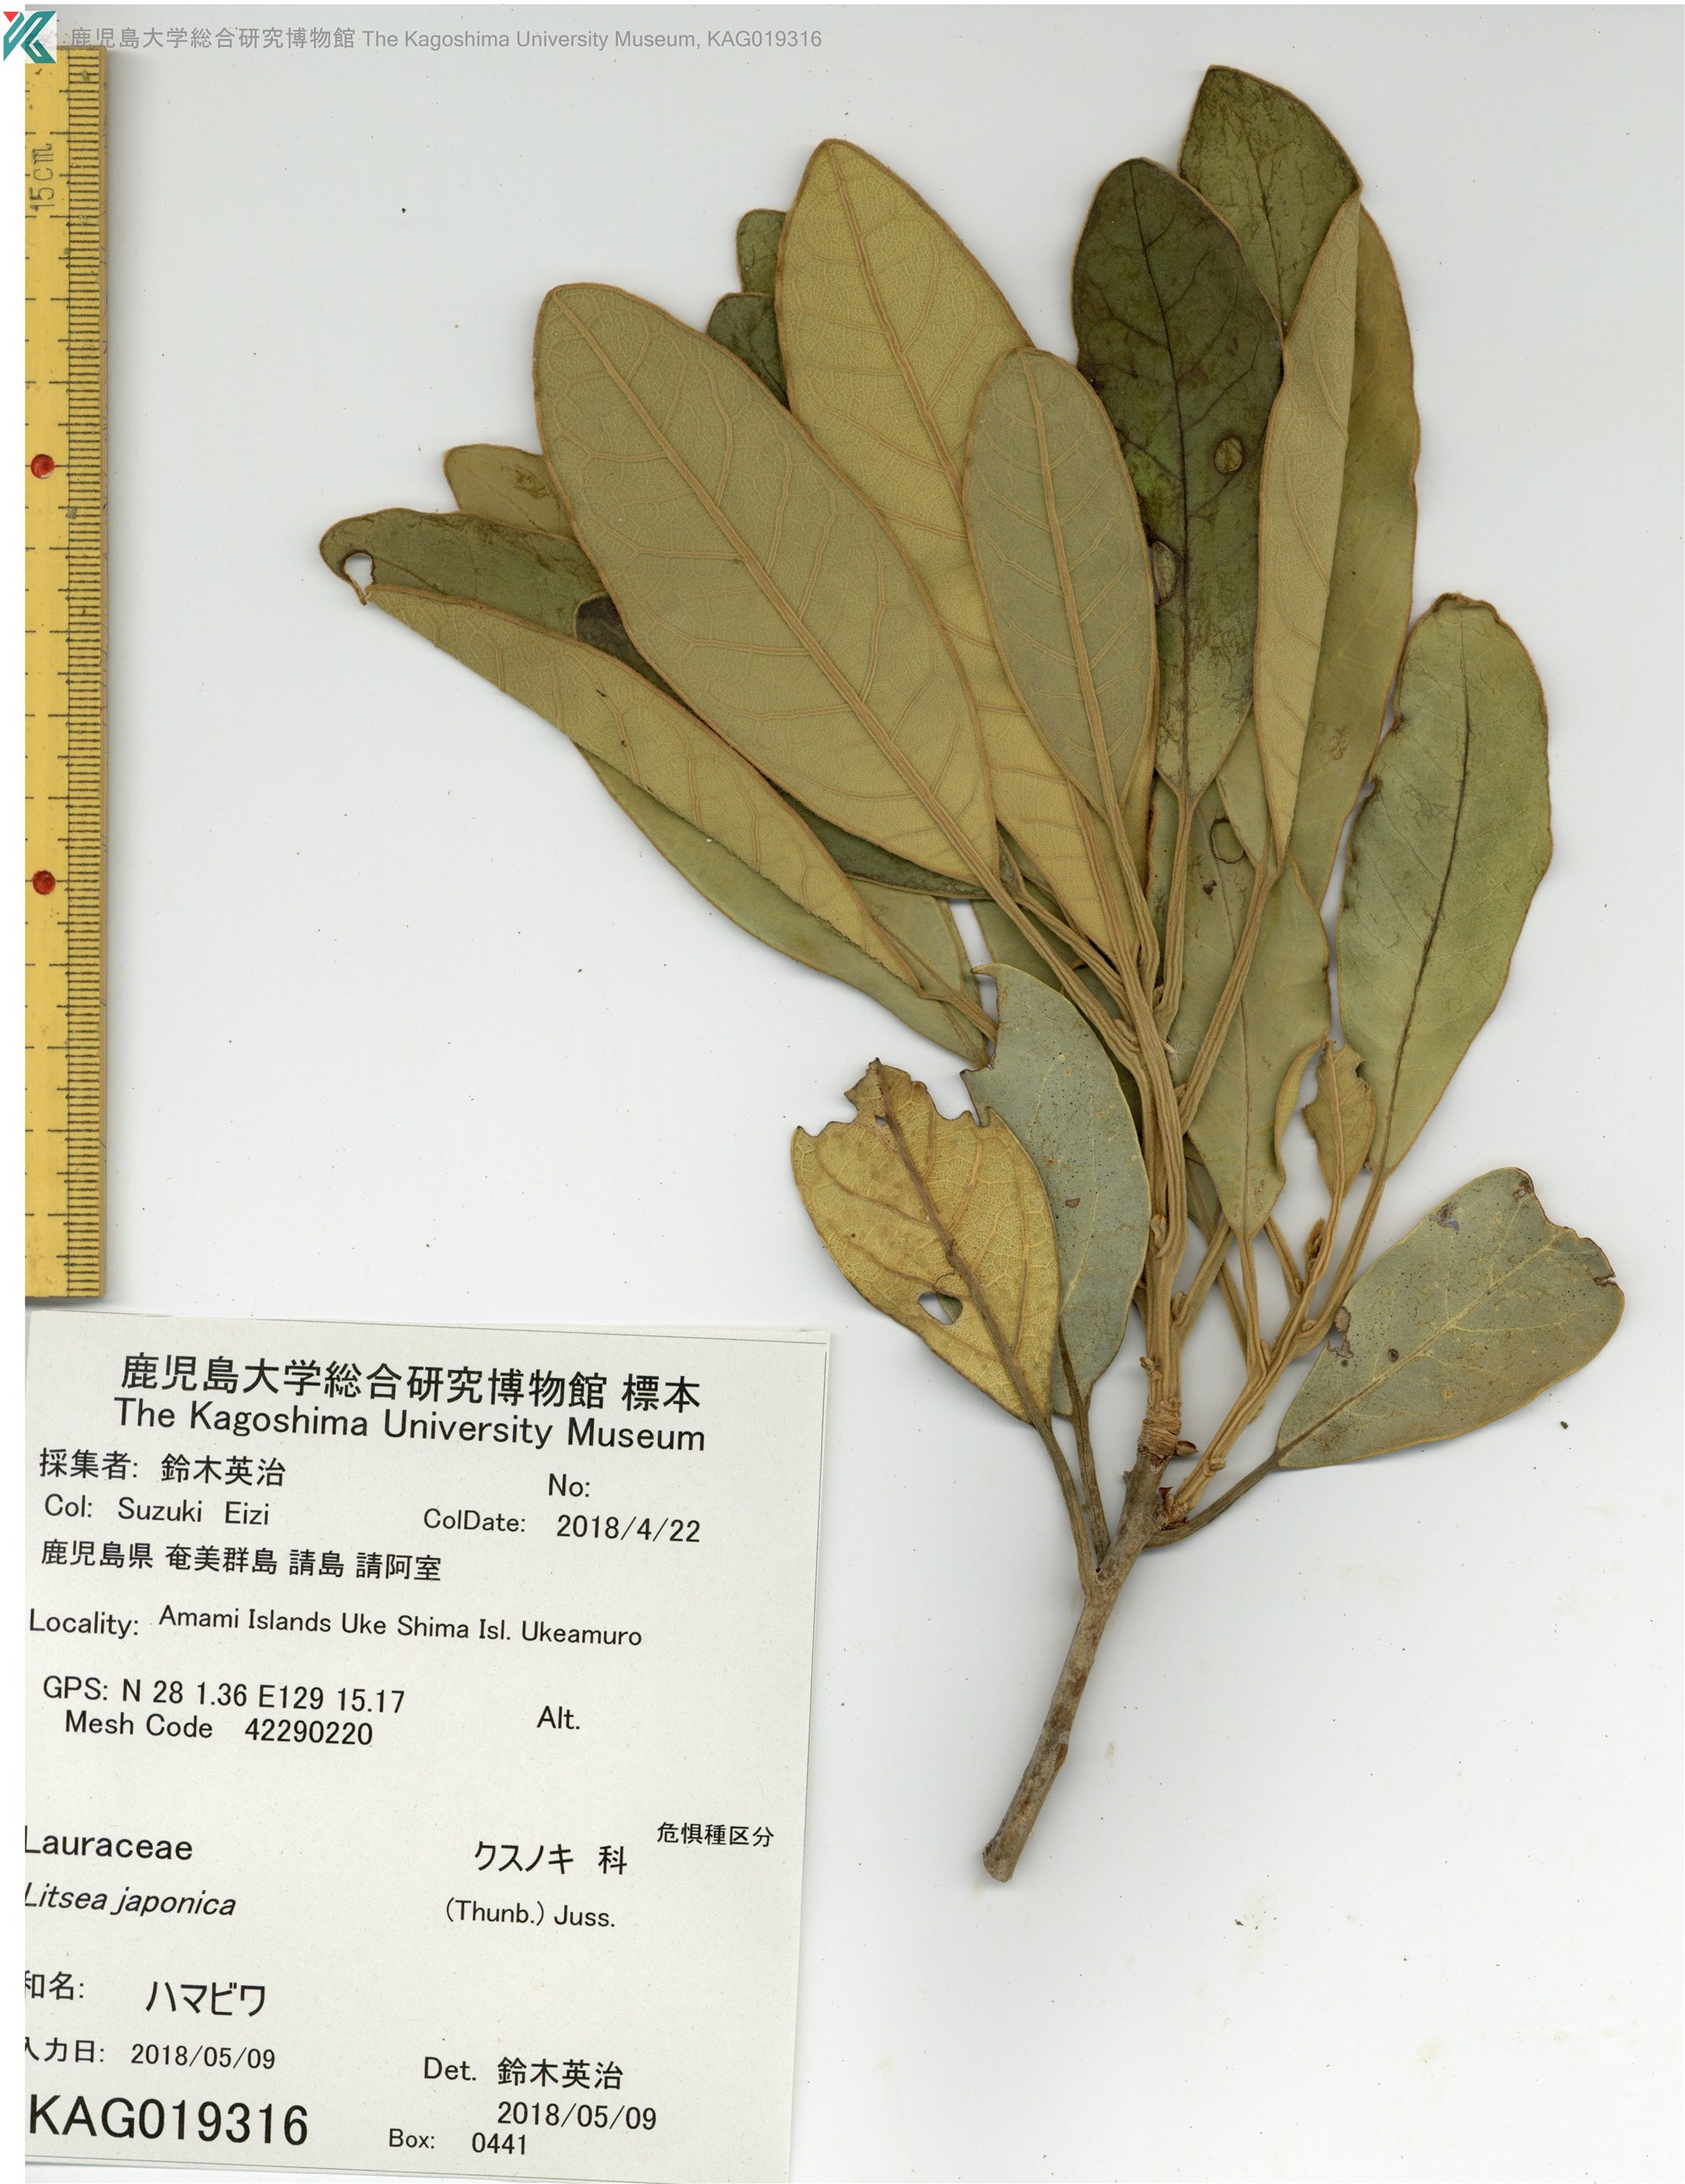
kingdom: Plantae
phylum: Tracheophyta
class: Magnoliopsida
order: Laurales
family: Lauraceae
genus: Litsea
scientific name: Litsea japonica
